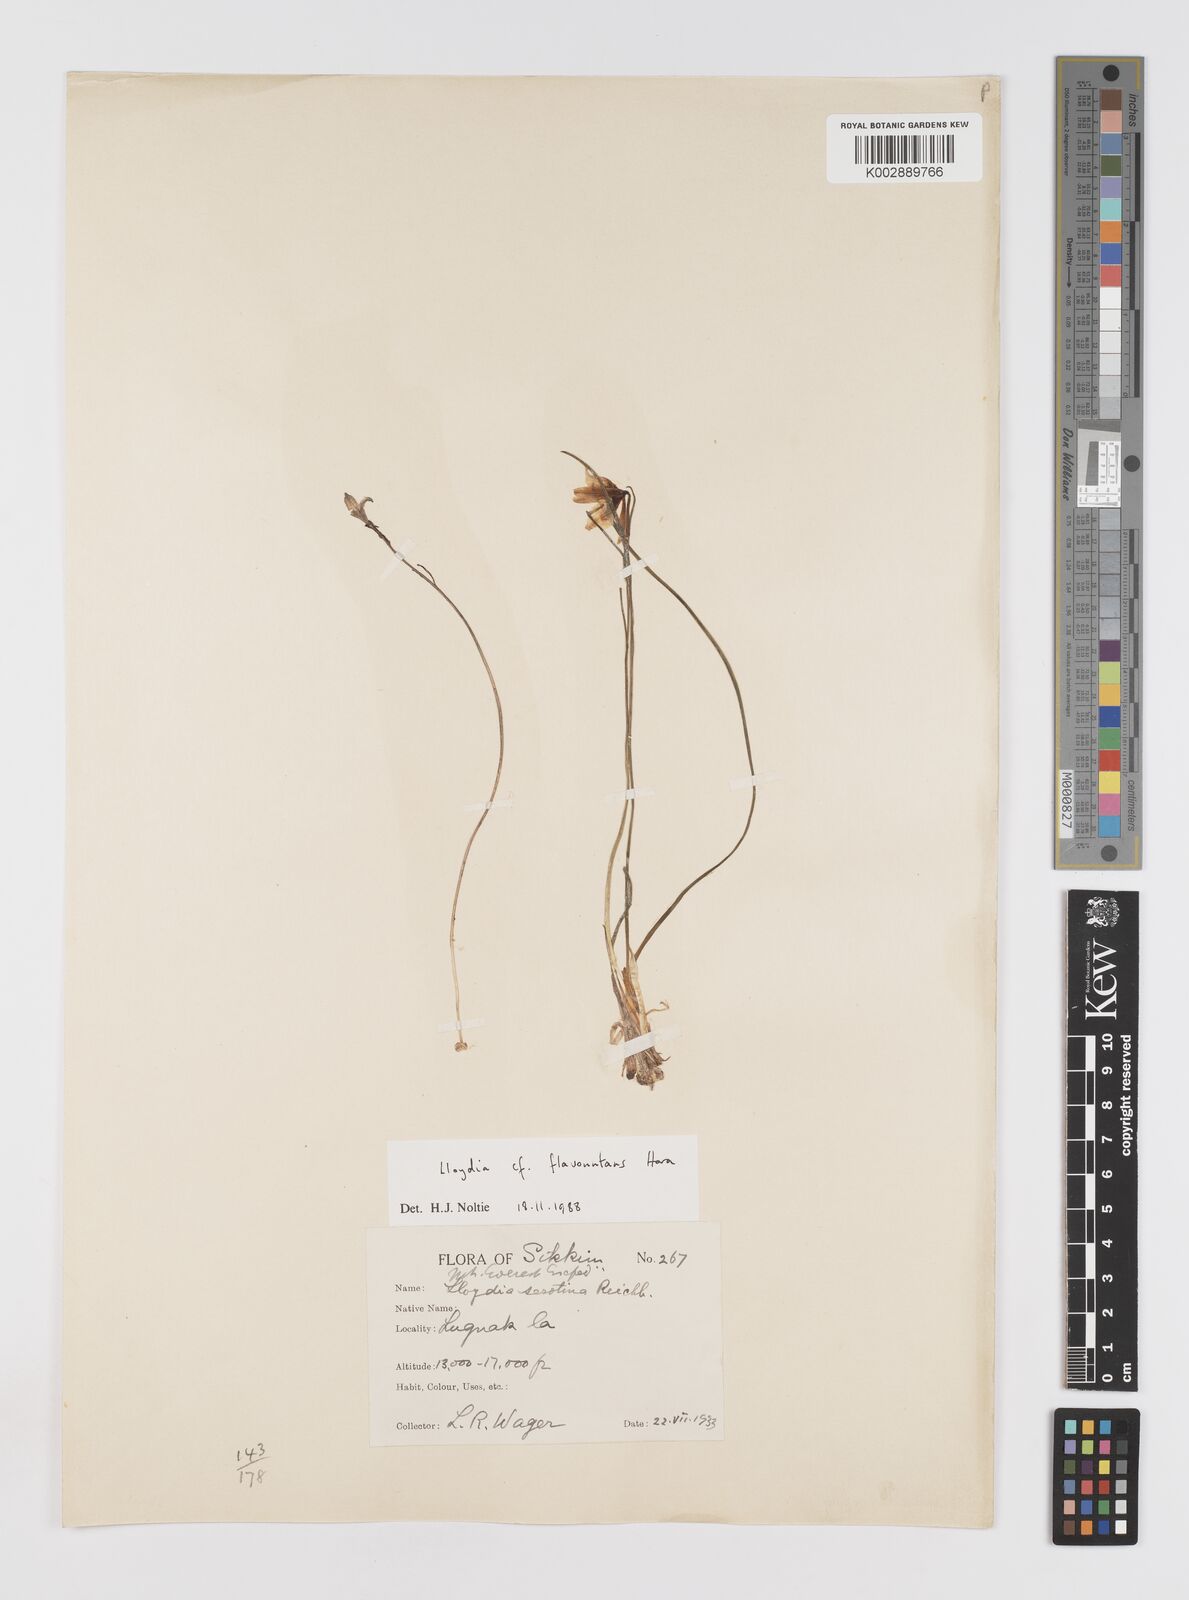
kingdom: Plantae
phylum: Tracheophyta
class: Liliopsida
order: Liliales
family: Liliaceae
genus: Gagea
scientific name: Gagea flavonutans
